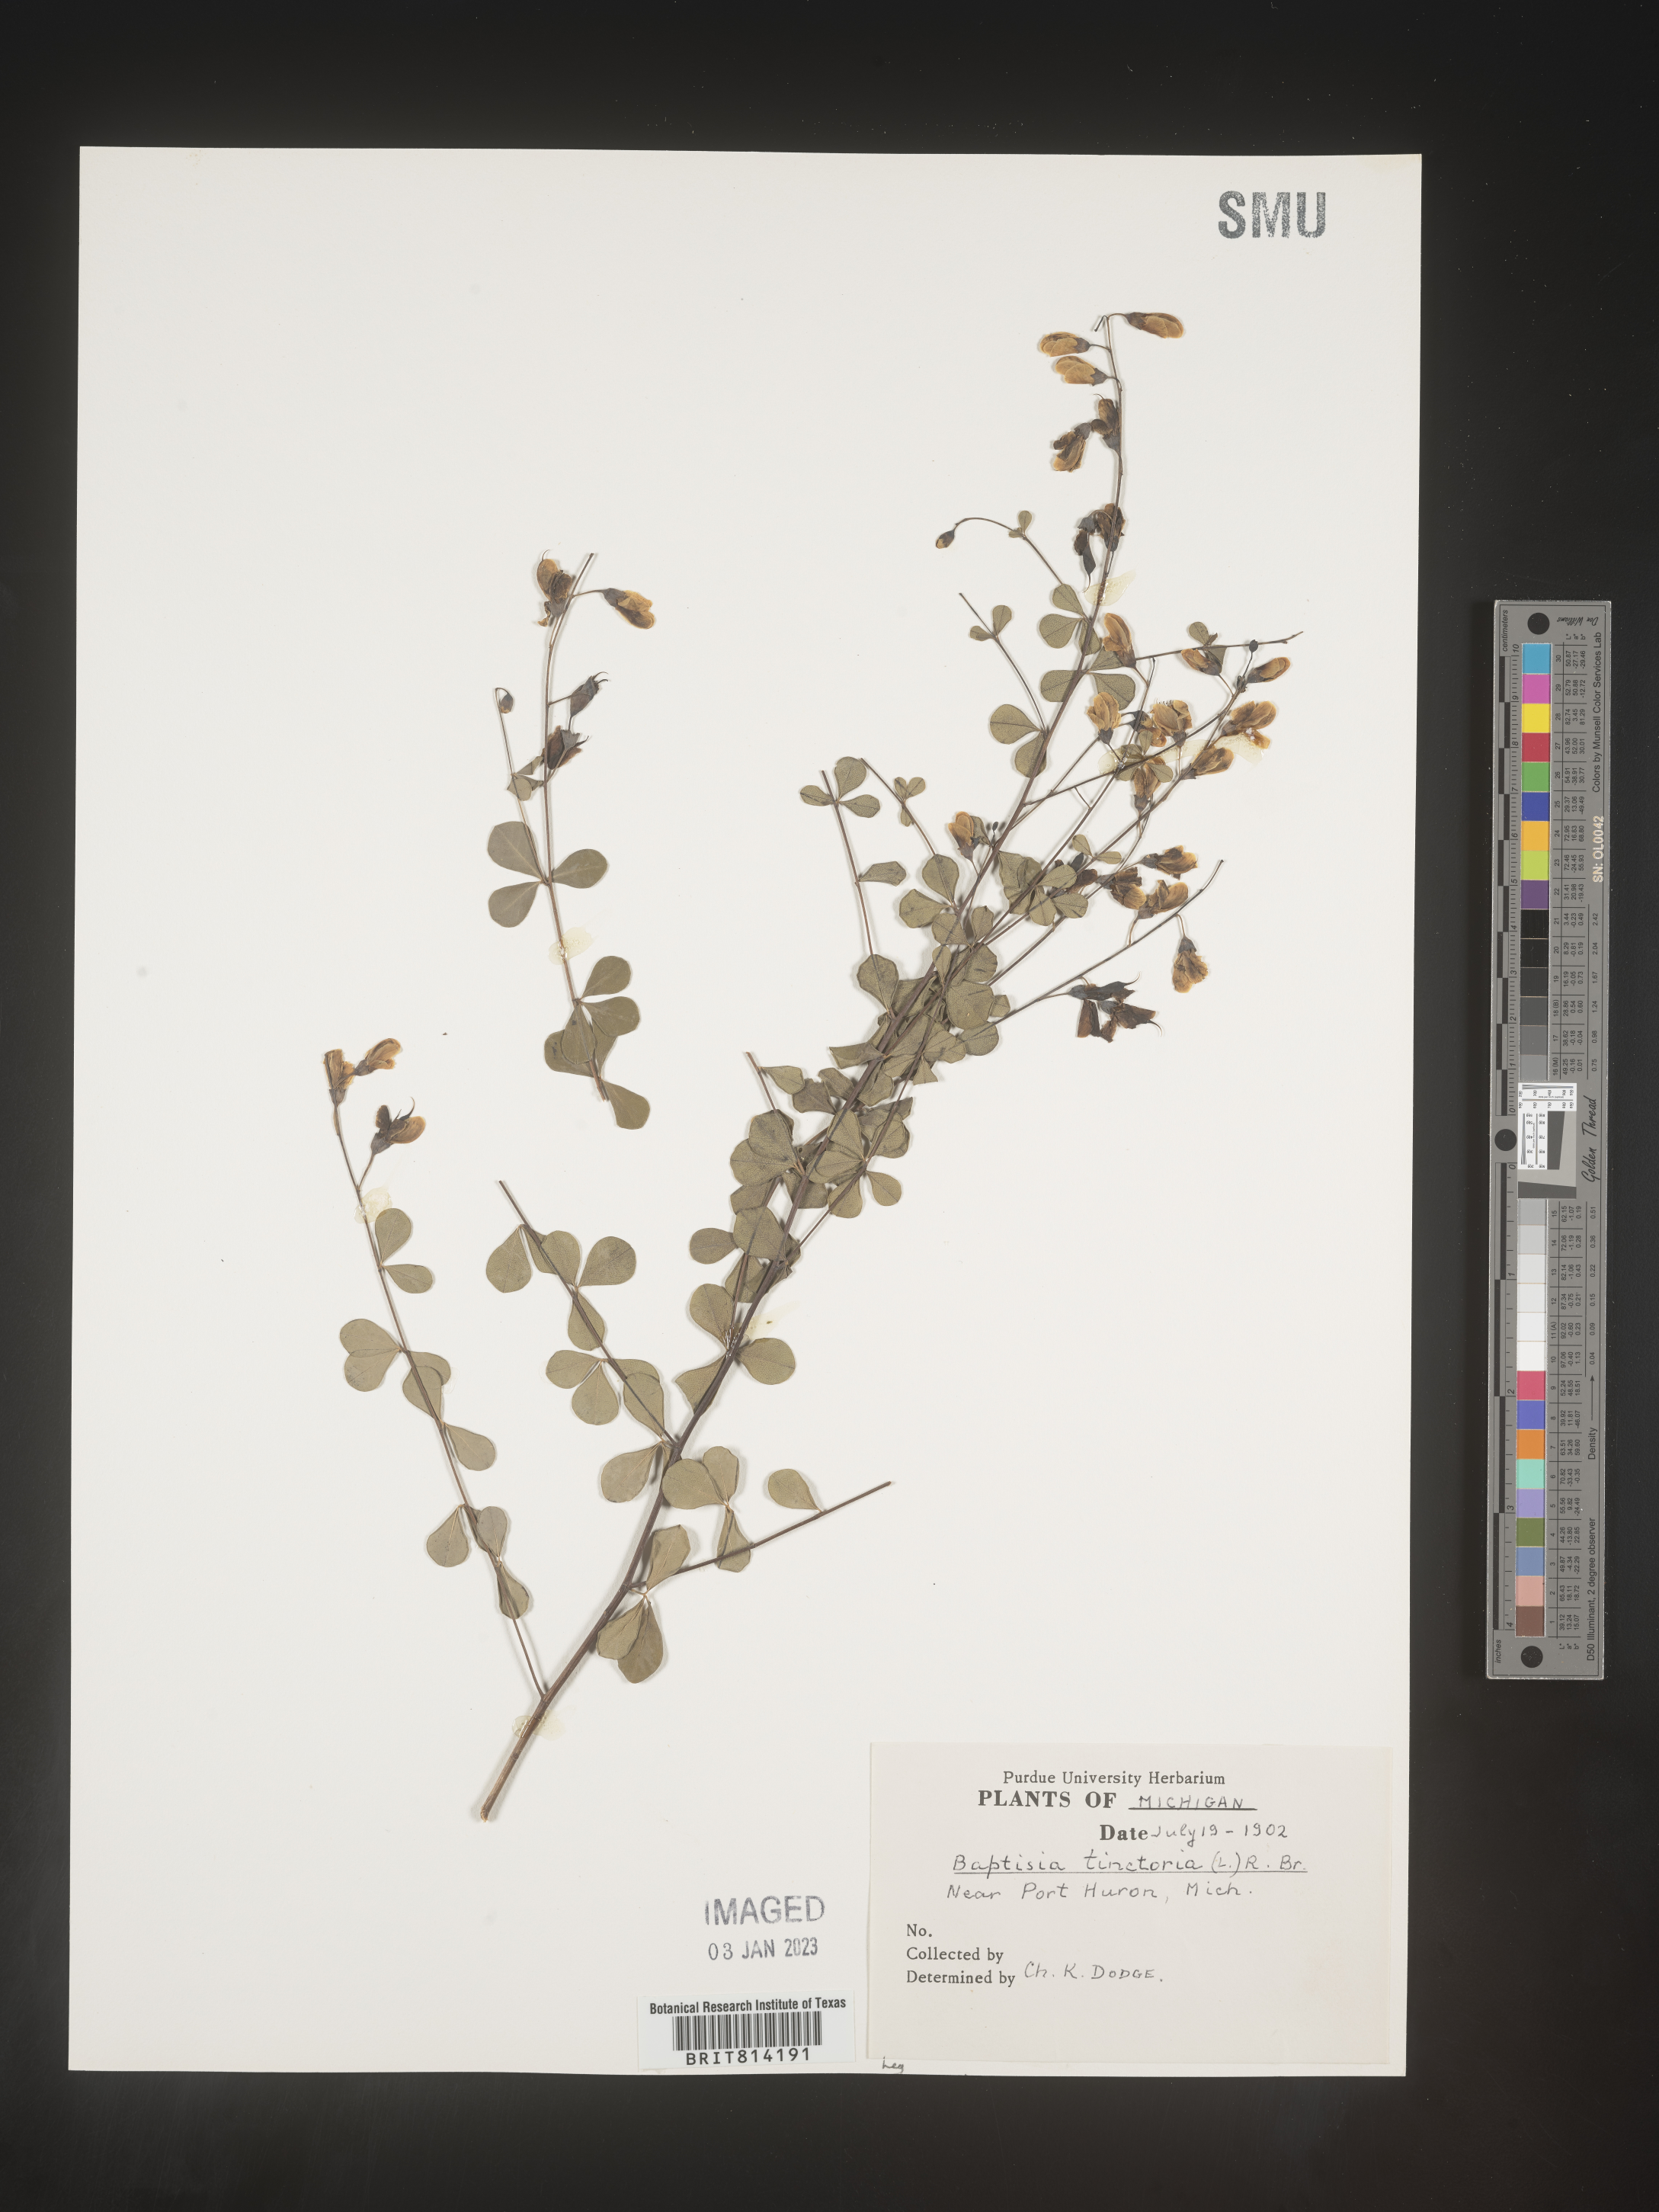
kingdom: Plantae
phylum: Tracheophyta
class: Magnoliopsida
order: Fabales
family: Fabaceae
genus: Baptisia
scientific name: Baptisia tinctoria
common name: Wild indigo
